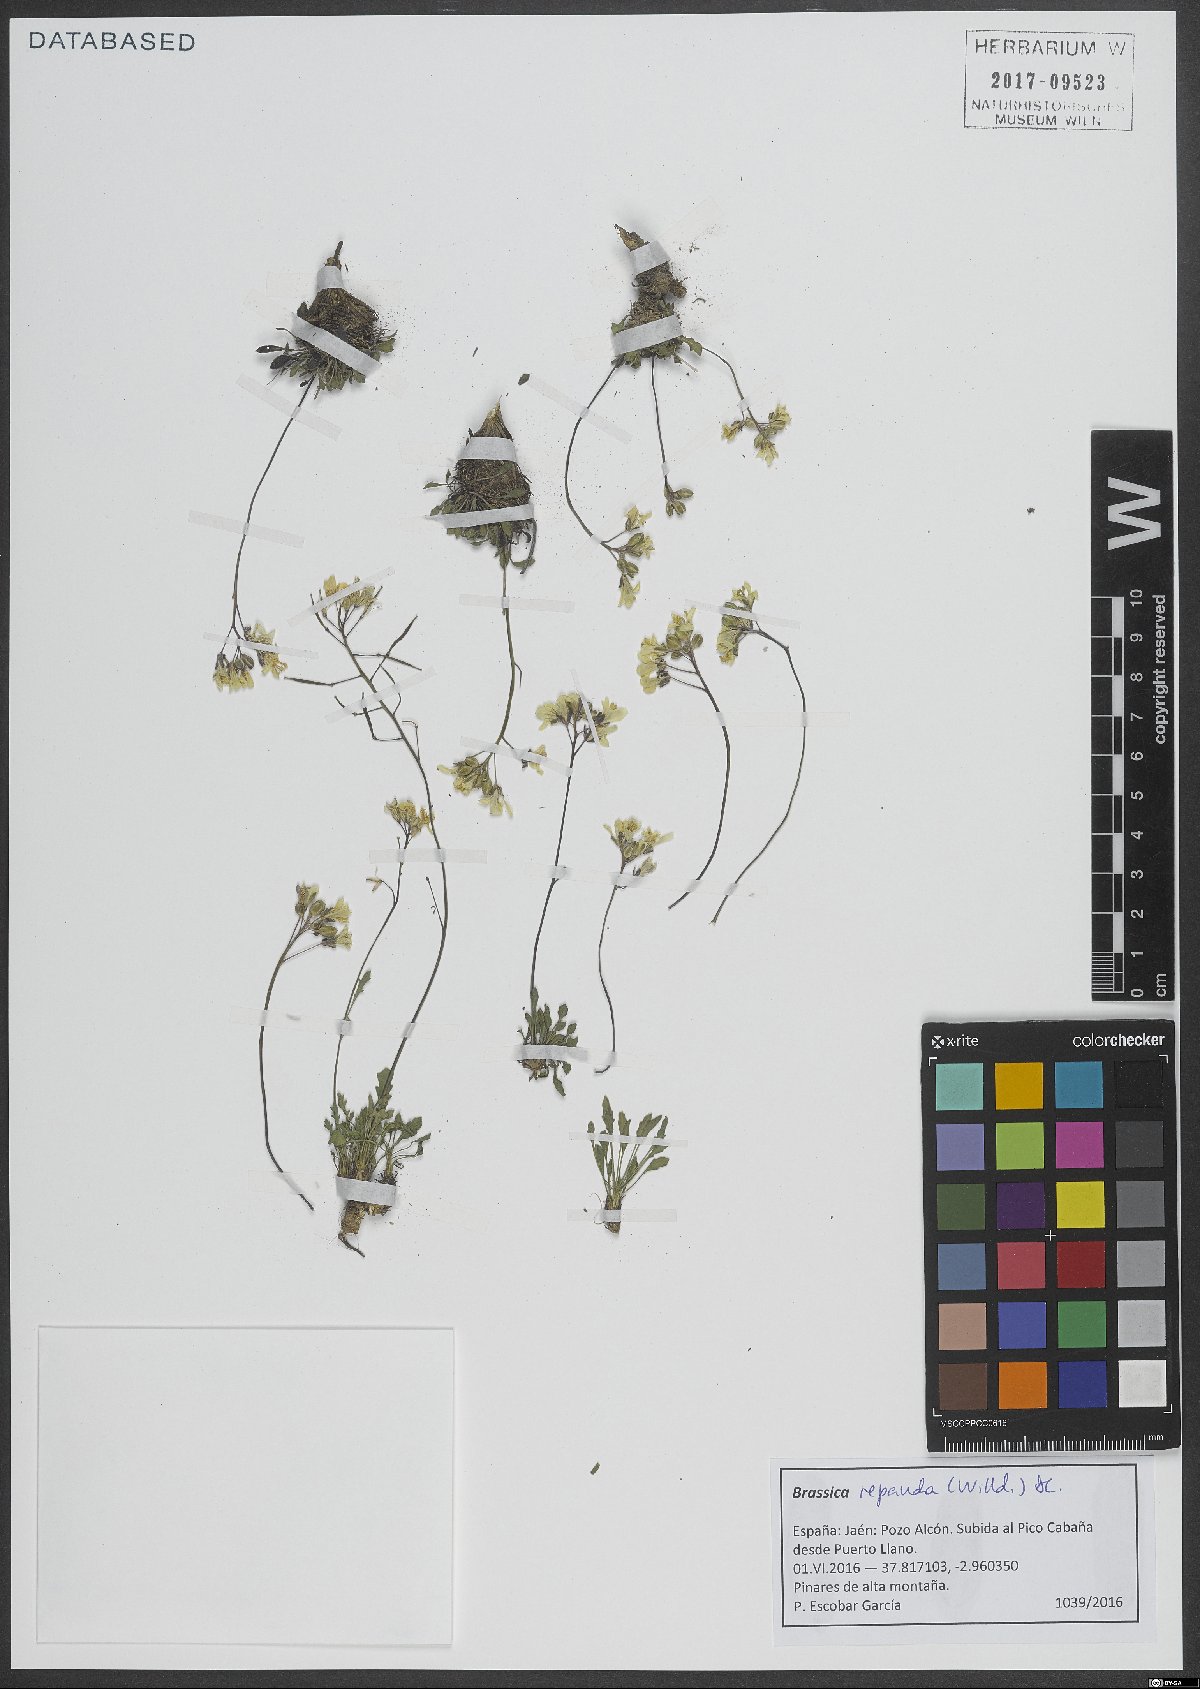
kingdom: Plantae
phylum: Tracheophyta
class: Magnoliopsida
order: Brassicales
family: Brassicaceae
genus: Brassica
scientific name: Brassica repanda
